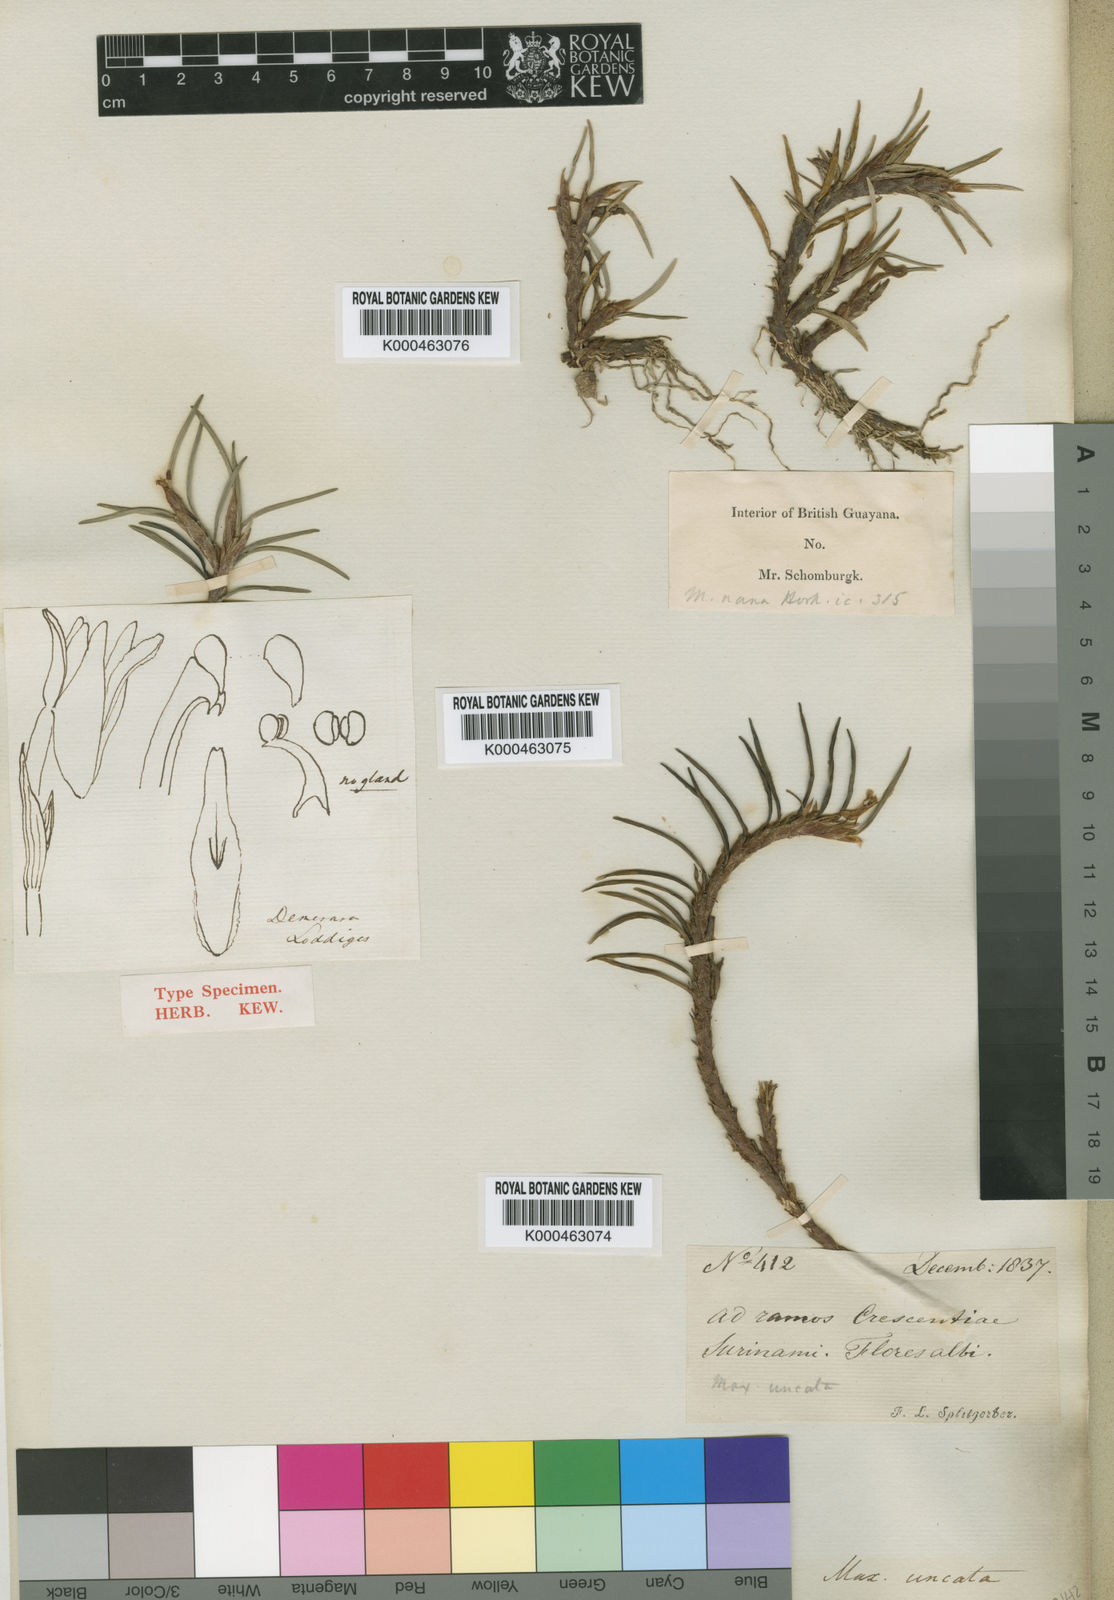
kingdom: Plantae
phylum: Tracheophyta
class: Liliopsida
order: Asparagales
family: Orchidaceae
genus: Maxillaria
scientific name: Maxillaria uncata
